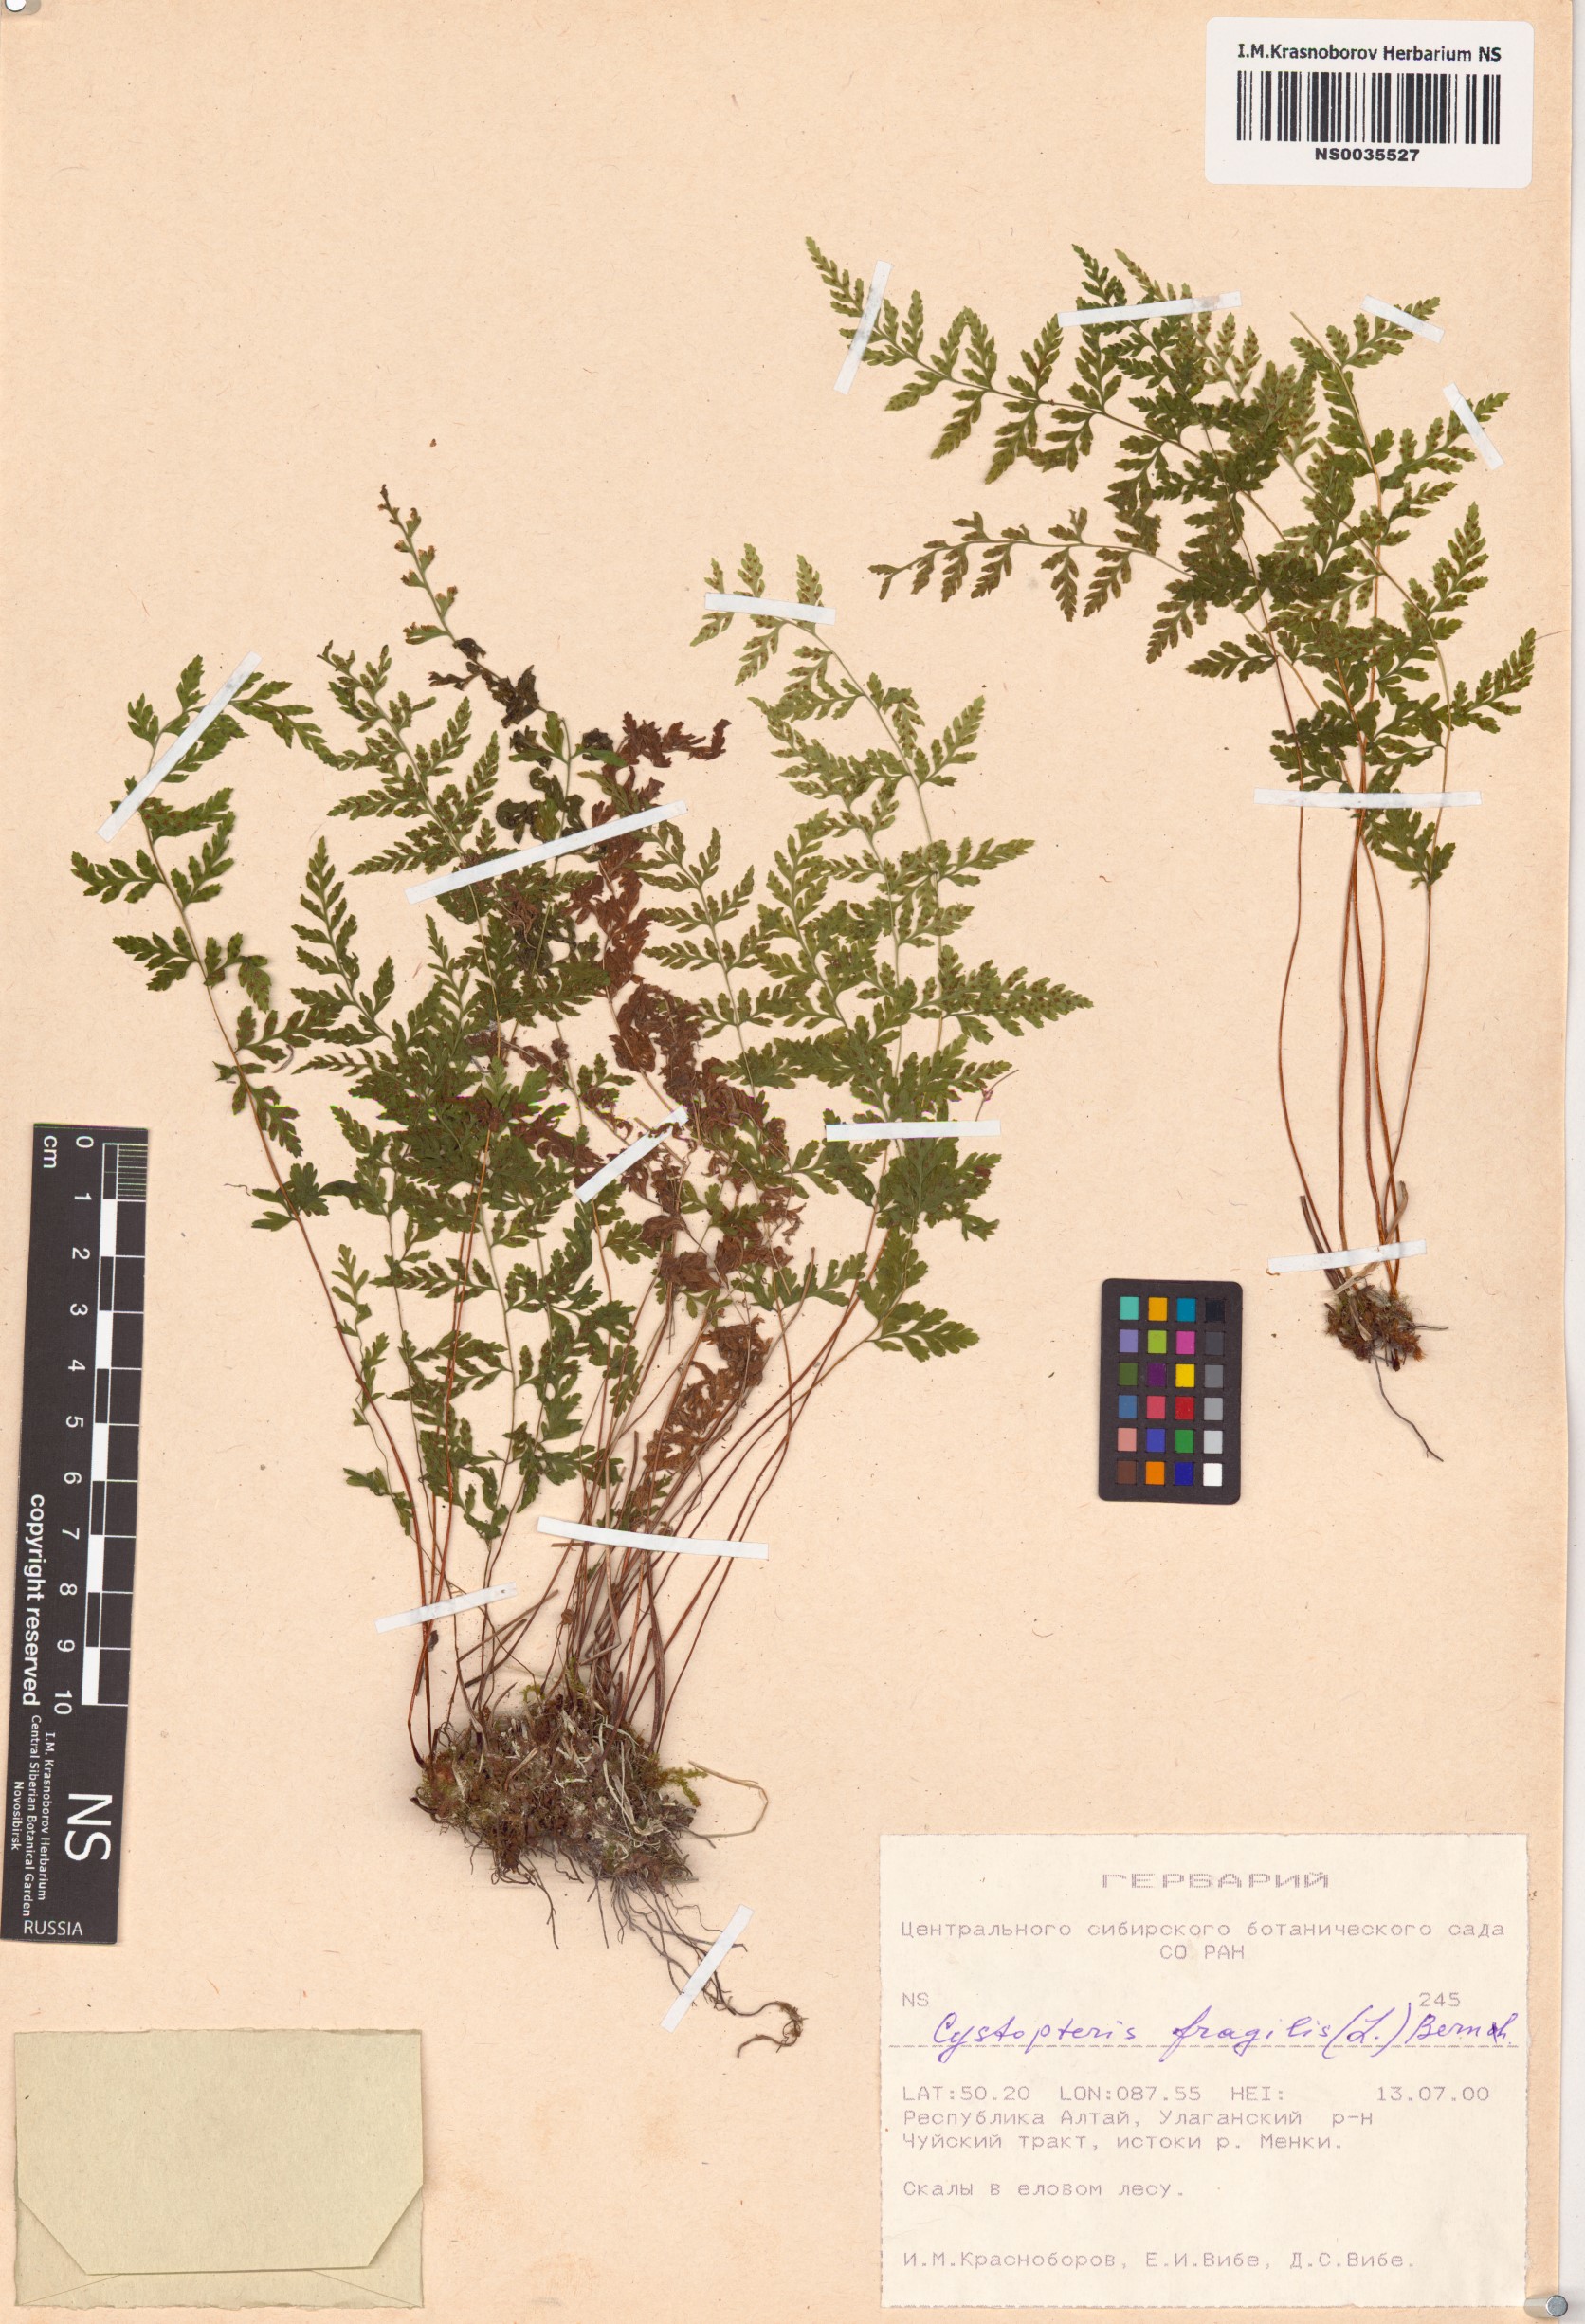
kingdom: Plantae
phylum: Tracheophyta
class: Polypodiopsida
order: Polypodiales
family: Cystopteridaceae
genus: Cystopteris
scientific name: Cystopteris fragilis
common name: Brittle bladder fern
